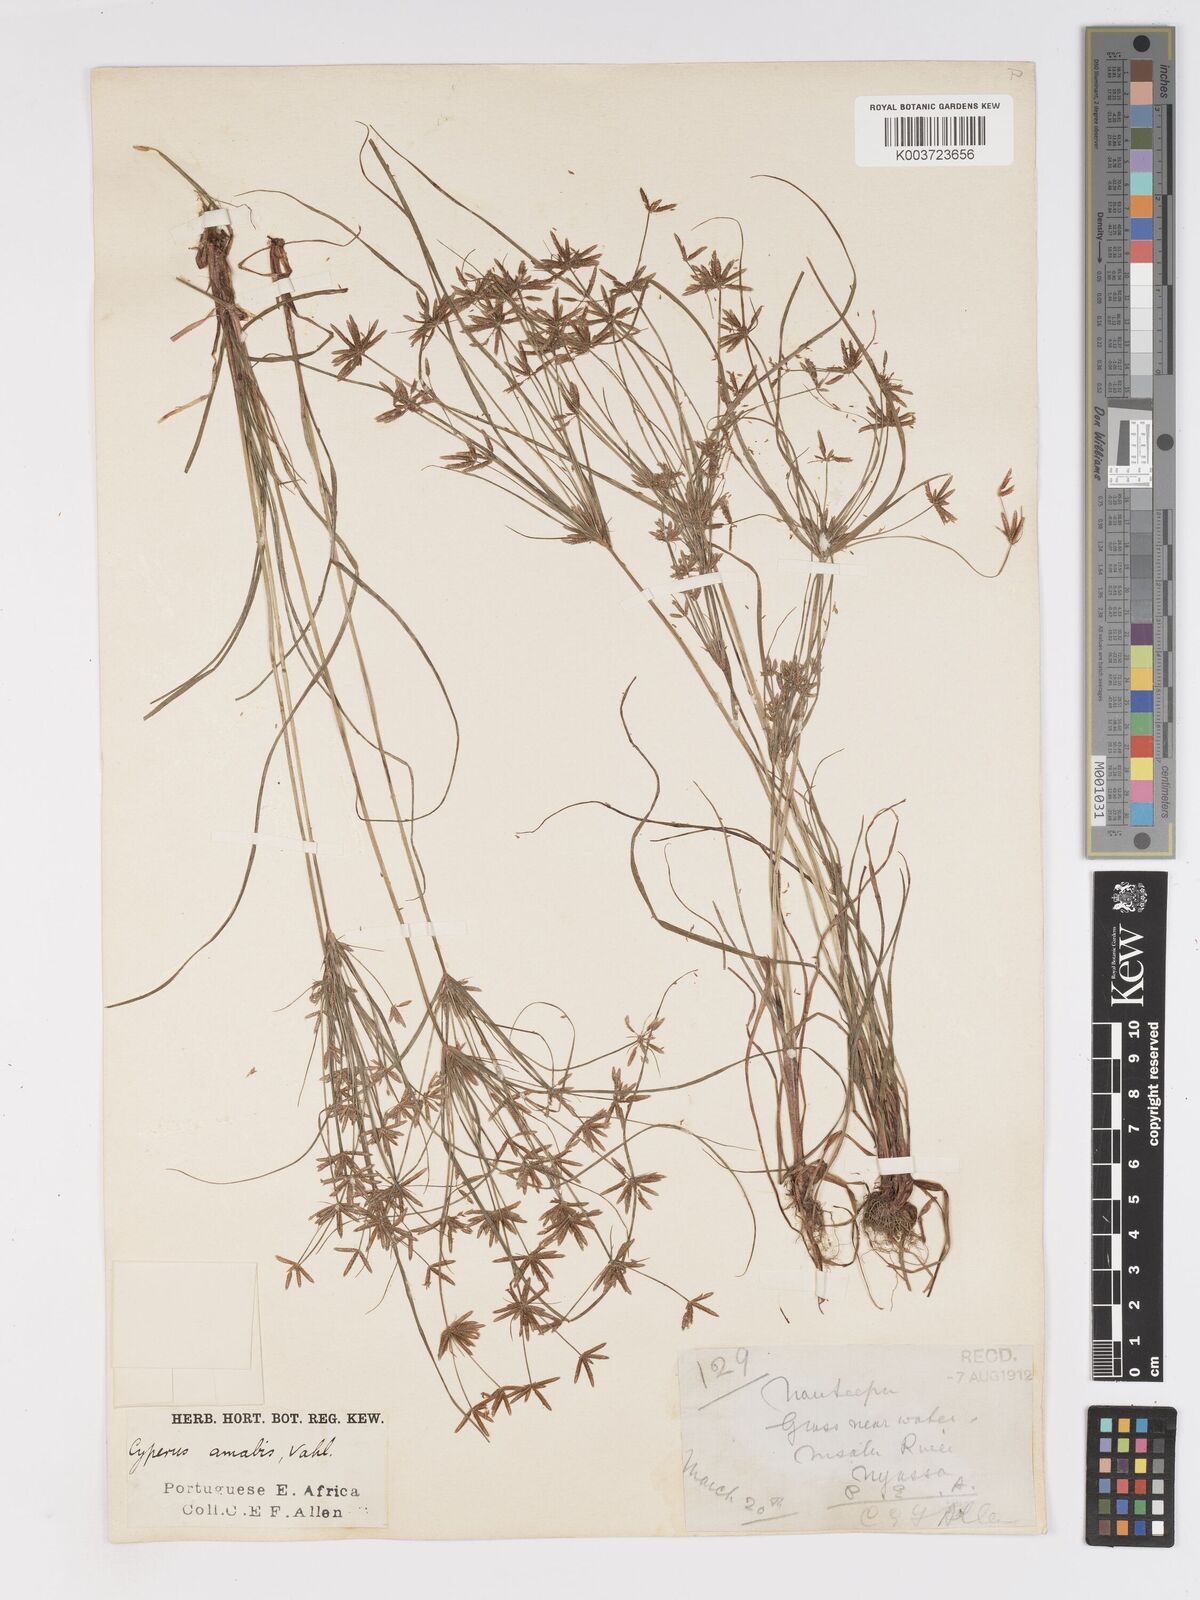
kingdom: Plantae
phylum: Tracheophyta
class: Liliopsida
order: Poales
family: Cyperaceae
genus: Cyperus
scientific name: Cyperus amabilis
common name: Foothill flat sedge
